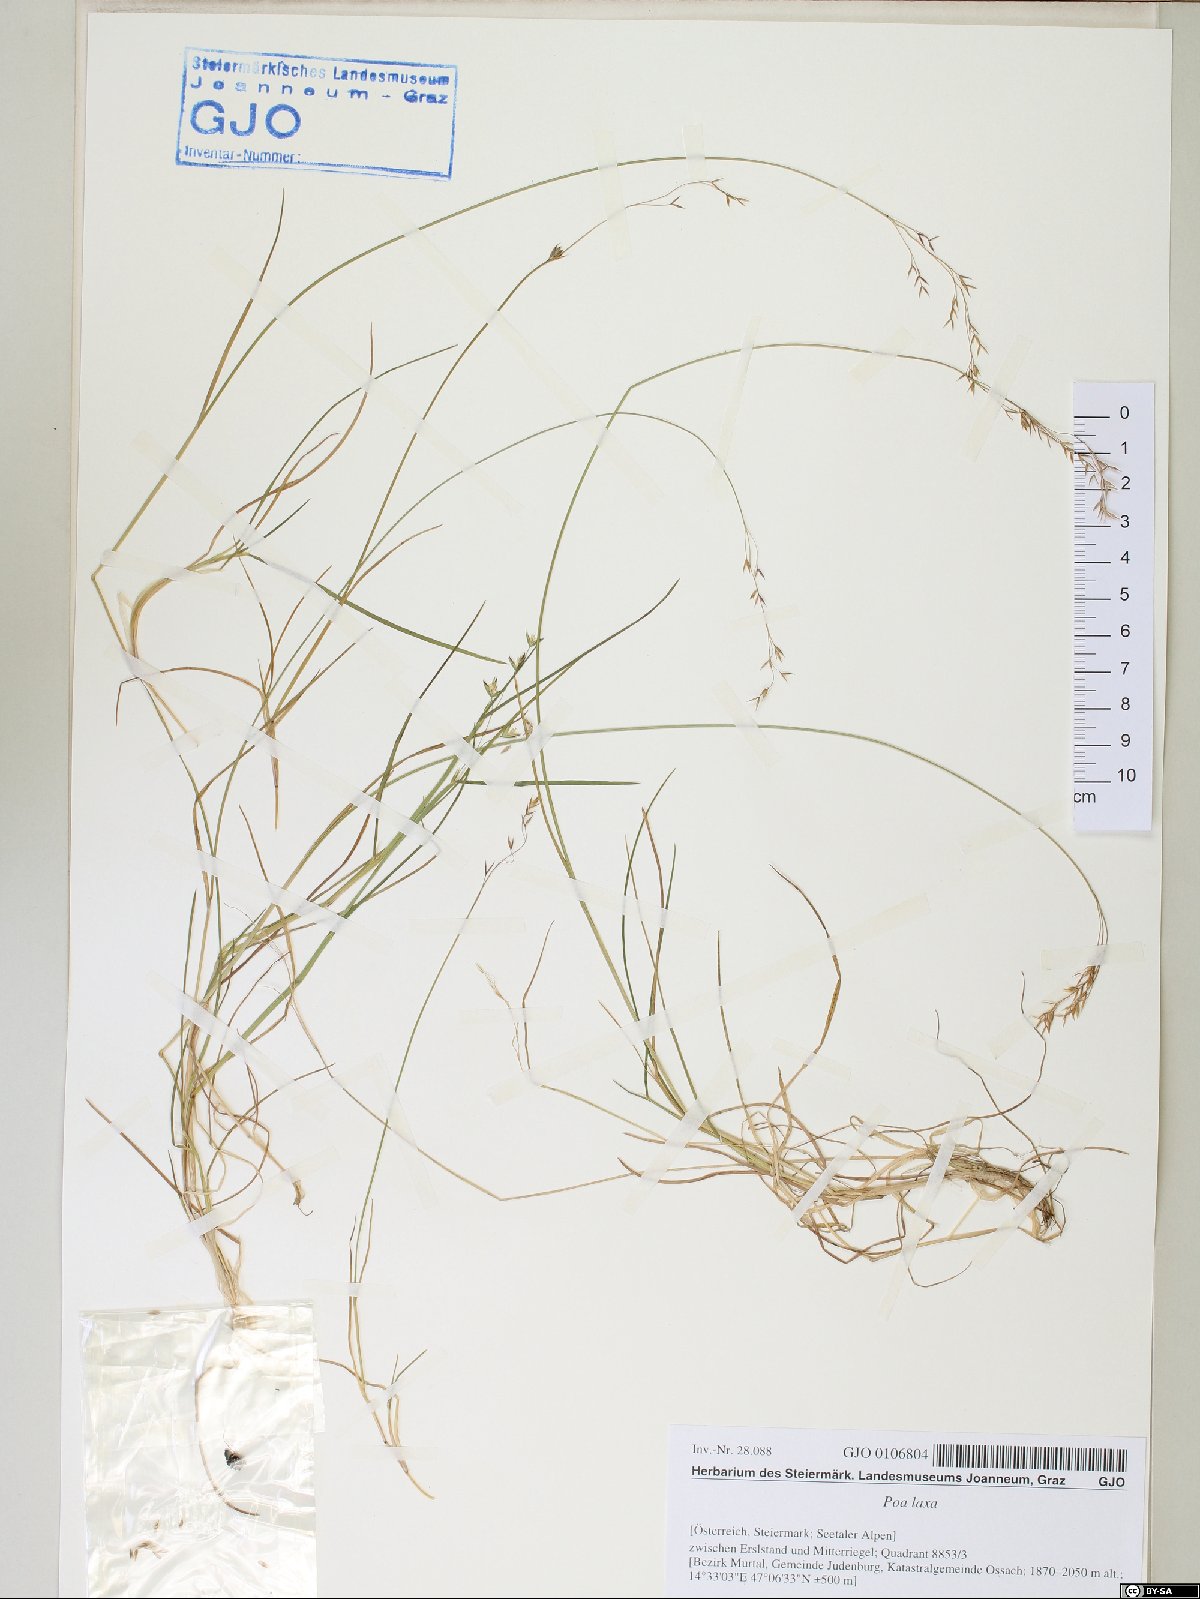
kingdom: Plantae
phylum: Tracheophyta
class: Liliopsida
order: Poales
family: Poaceae
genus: Poa
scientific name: Poa laxa
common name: Lax bluegrass
